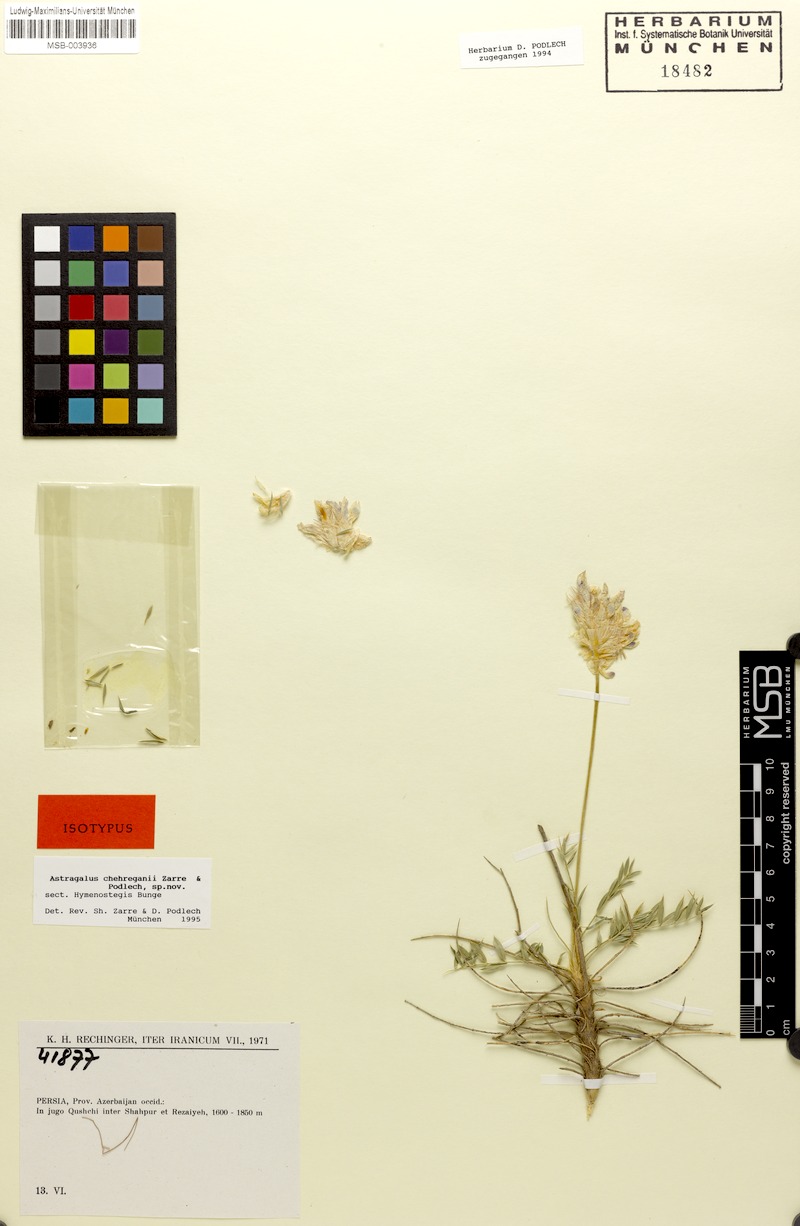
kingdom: Plantae
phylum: Tracheophyta
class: Magnoliopsida
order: Fabales
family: Fabaceae
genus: Astragalus
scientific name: Astragalus chehreganii
